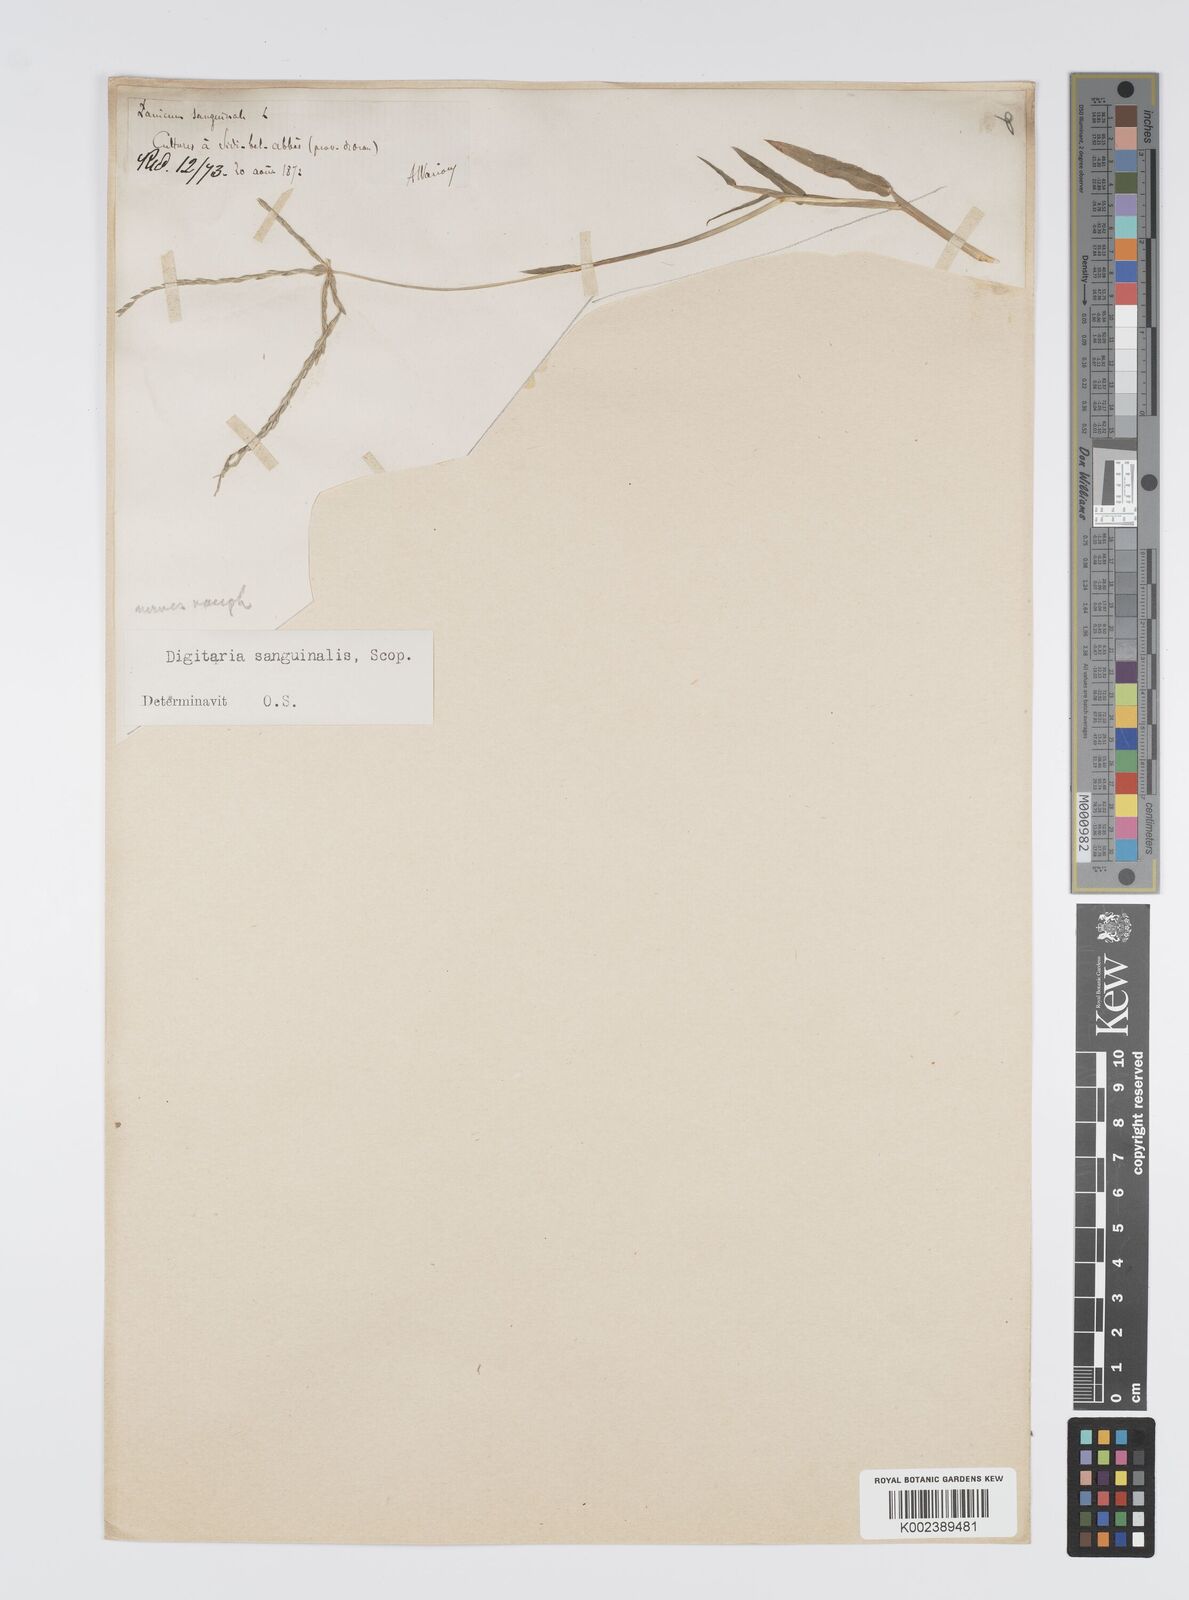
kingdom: Plantae
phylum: Tracheophyta
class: Liliopsida
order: Poales
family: Poaceae
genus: Digitaria
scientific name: Digitaria sanguinalis
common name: Hairy crabgrass
